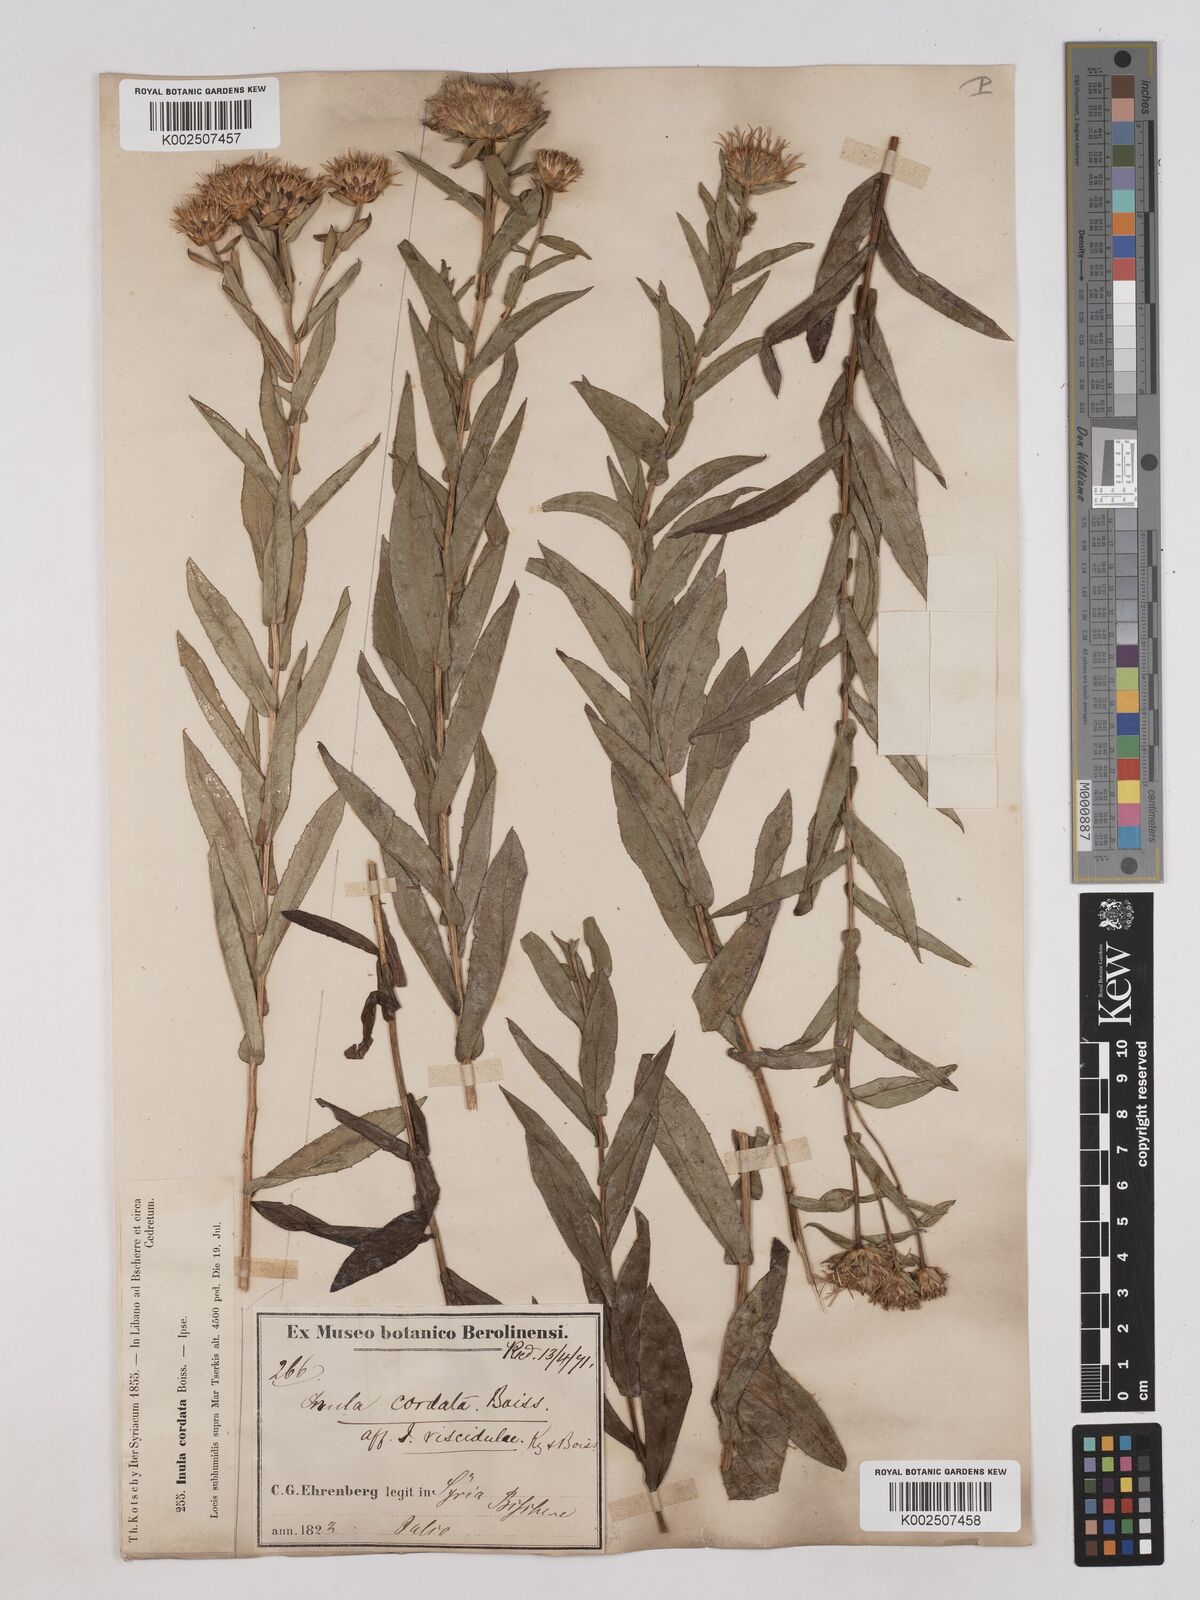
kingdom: Plantae
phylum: Tracheophyta
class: Magnoliopsida
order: Asterales
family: Asteraceae
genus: Pentanema
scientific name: Pentanema salicinum
